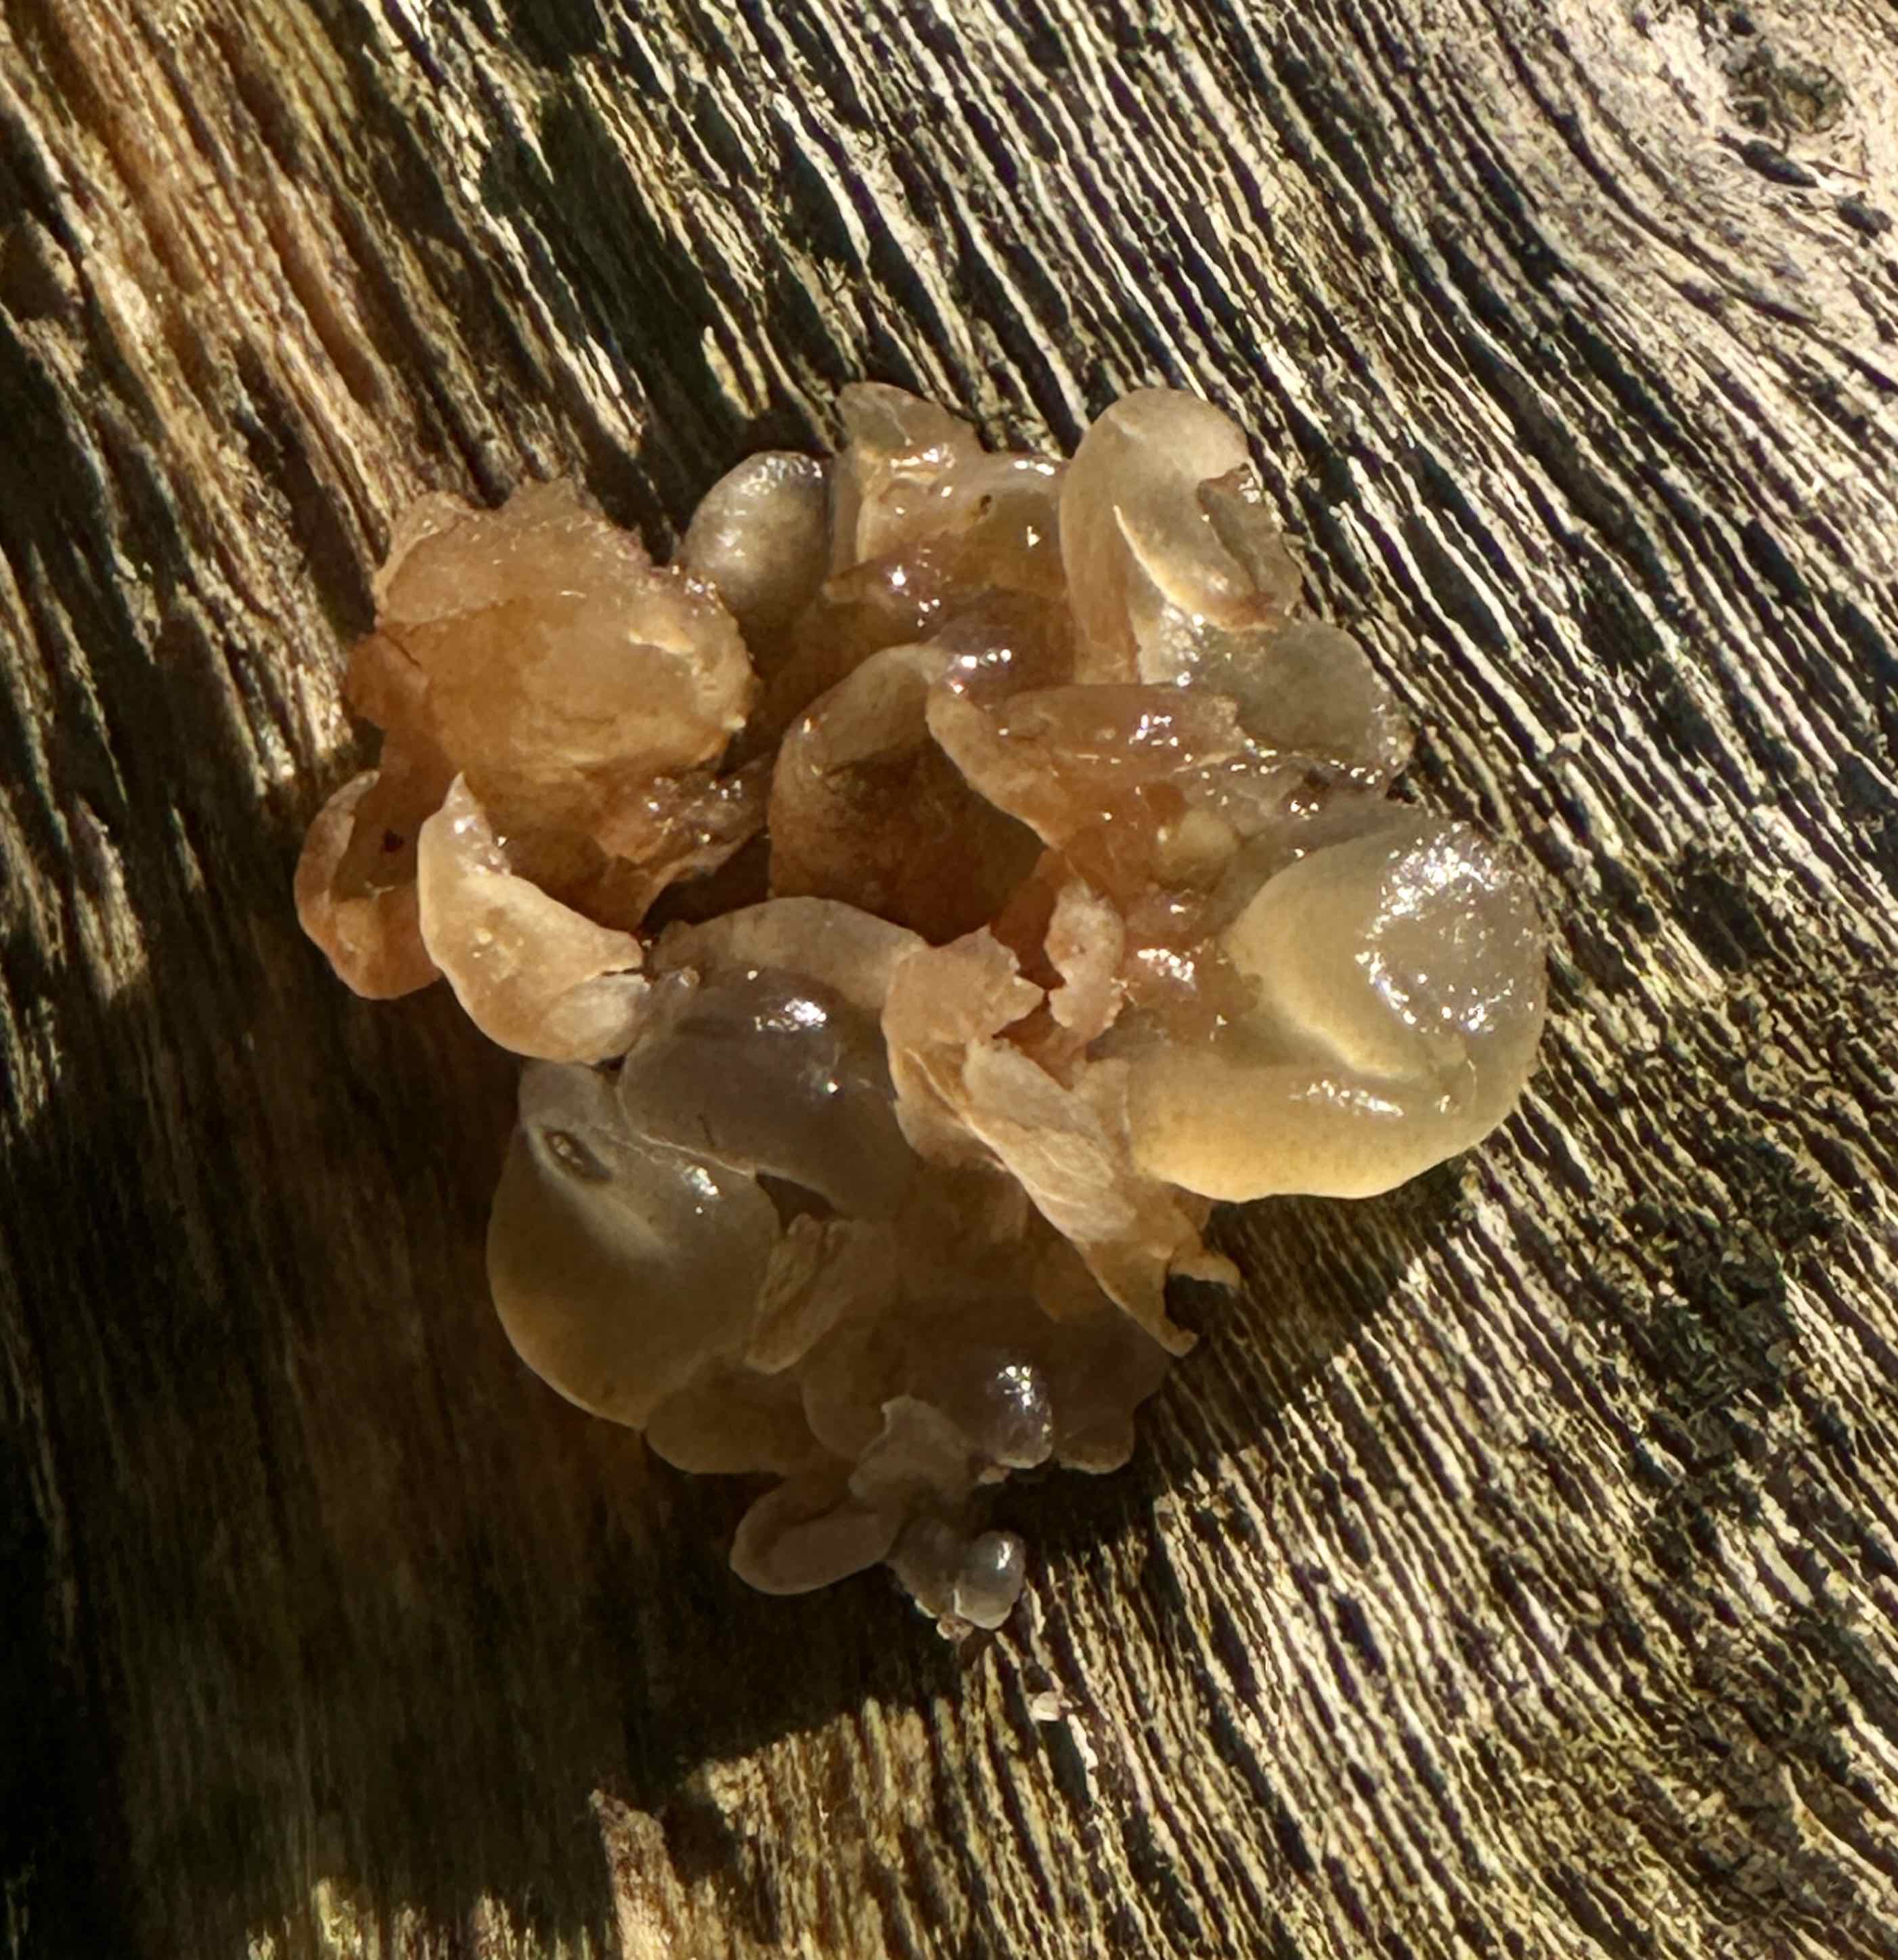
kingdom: Fungi
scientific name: Fungi
